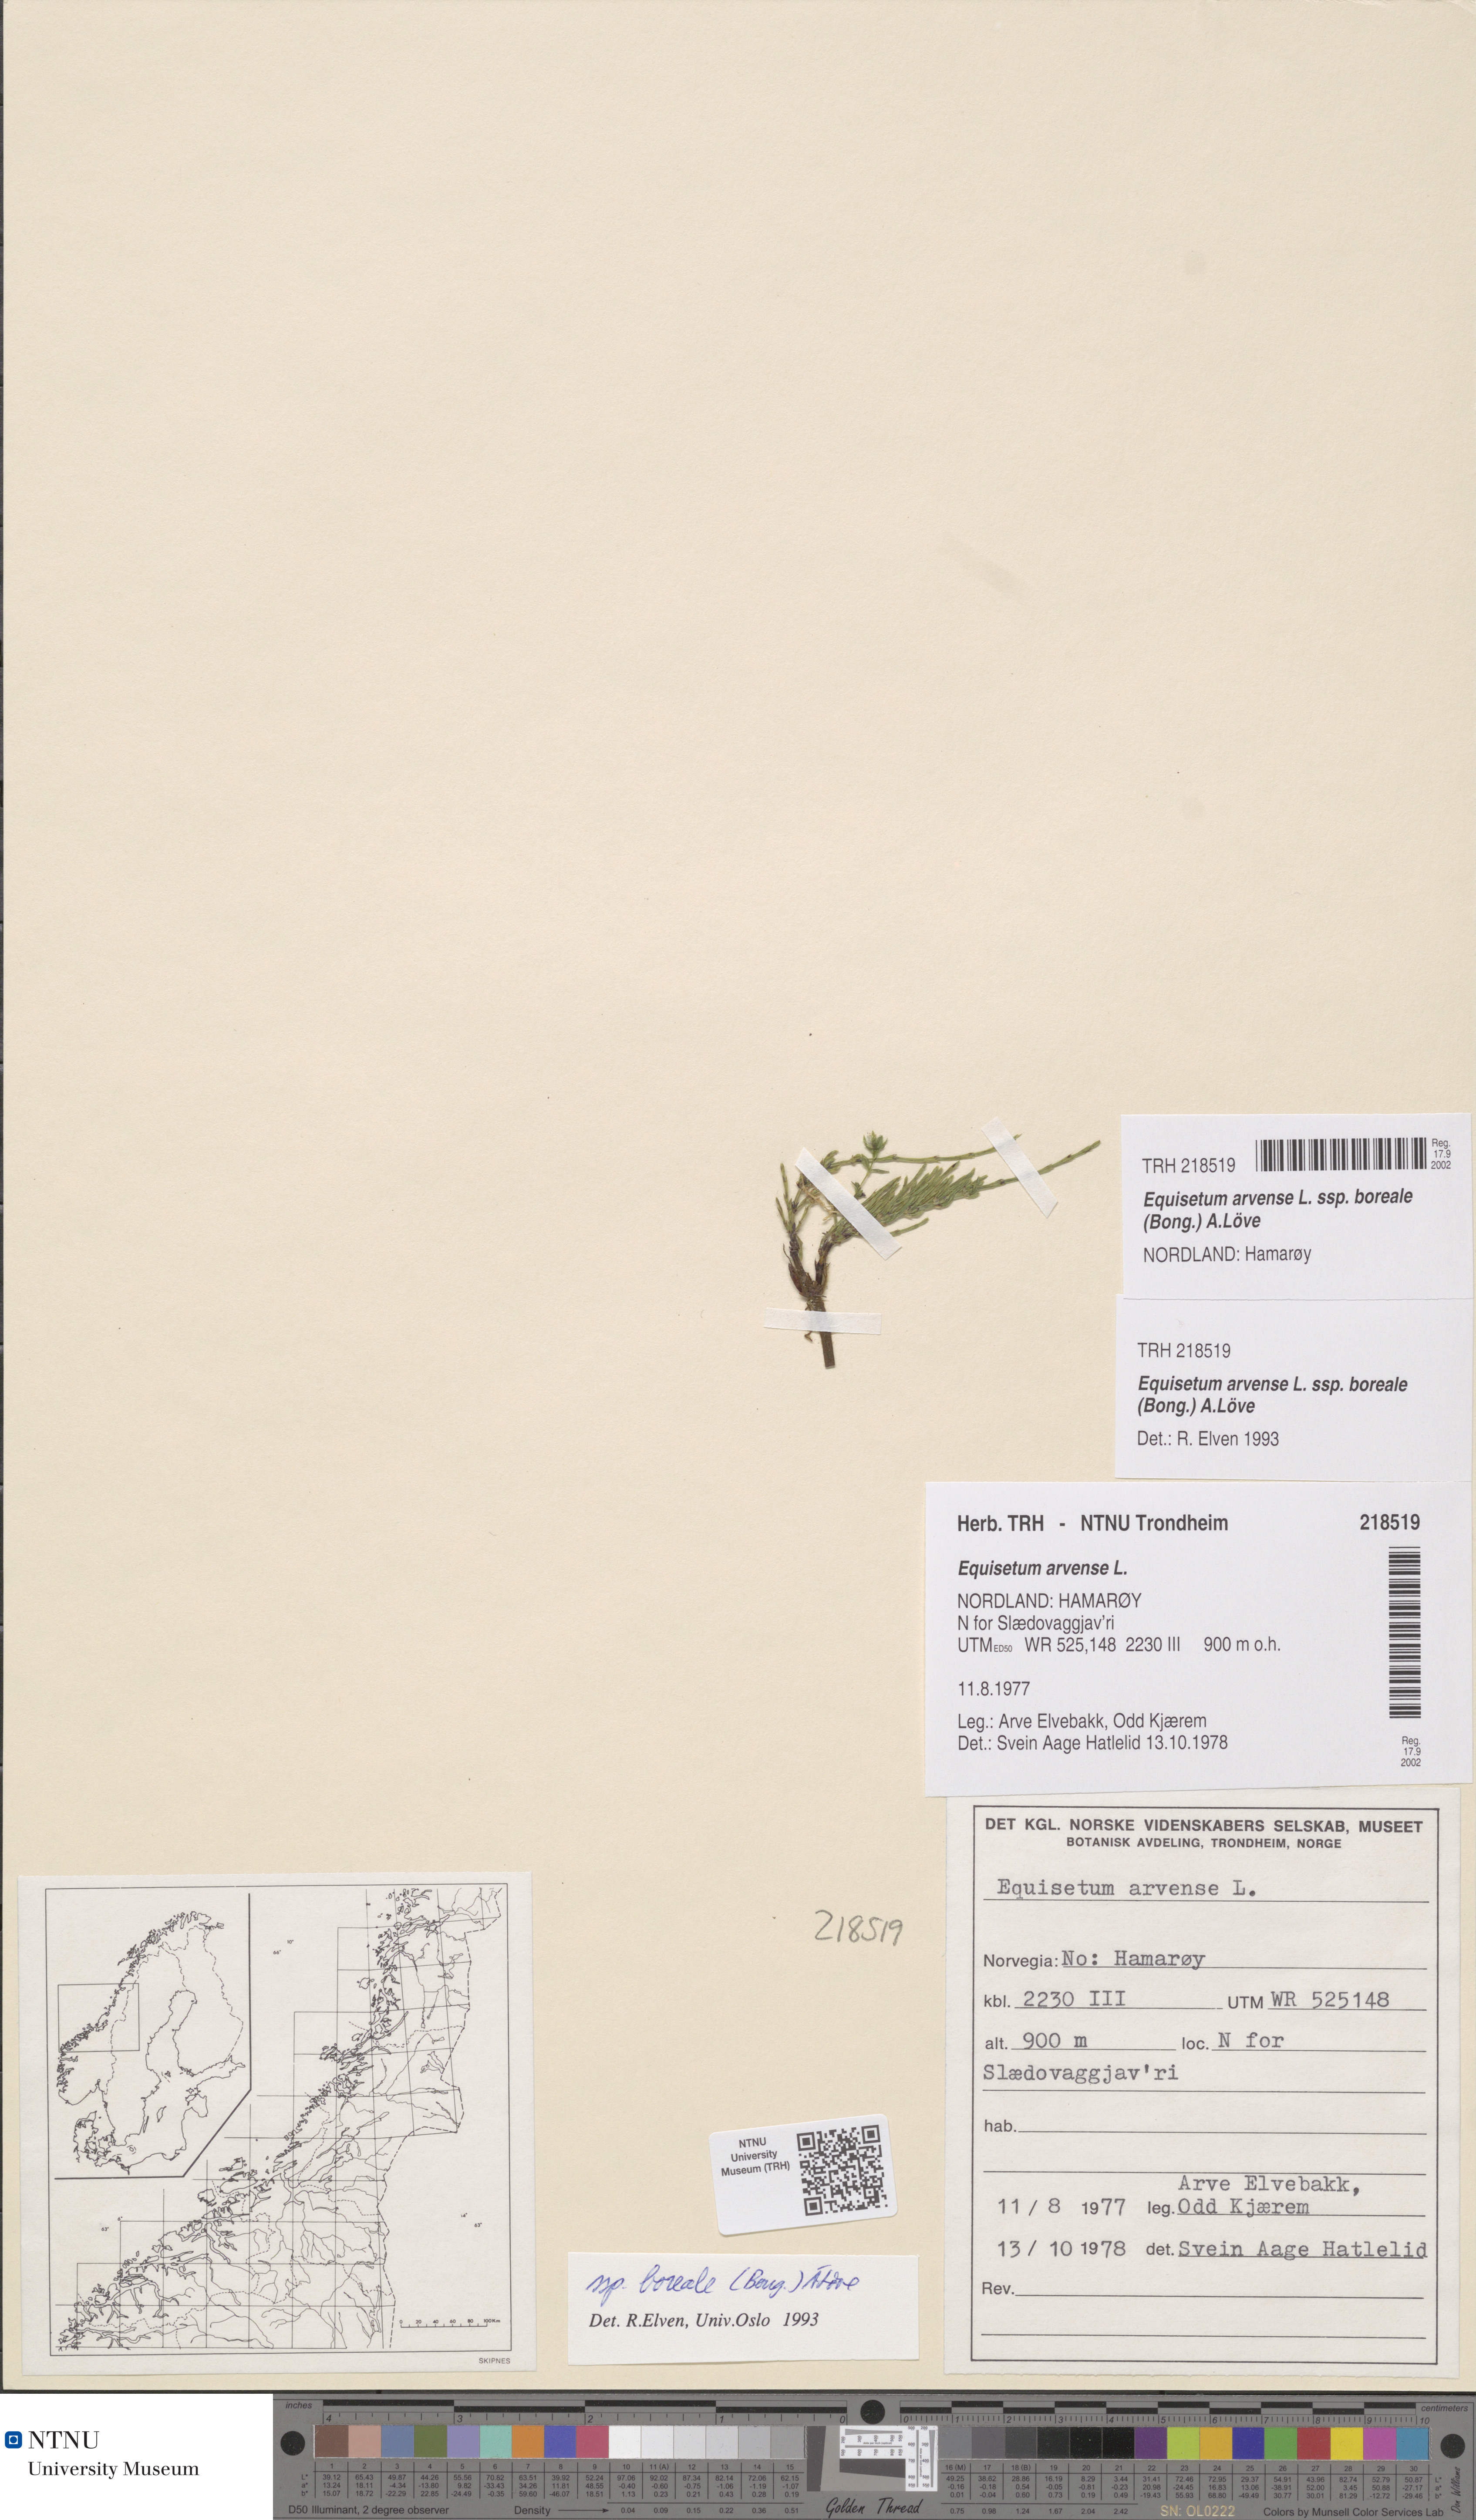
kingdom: Plantae
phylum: Tracheophyta
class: Polypodiopsida
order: Equisetales
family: Equisetaceae
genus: Equisetum
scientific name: Equisetum arvense
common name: Field horsetail
